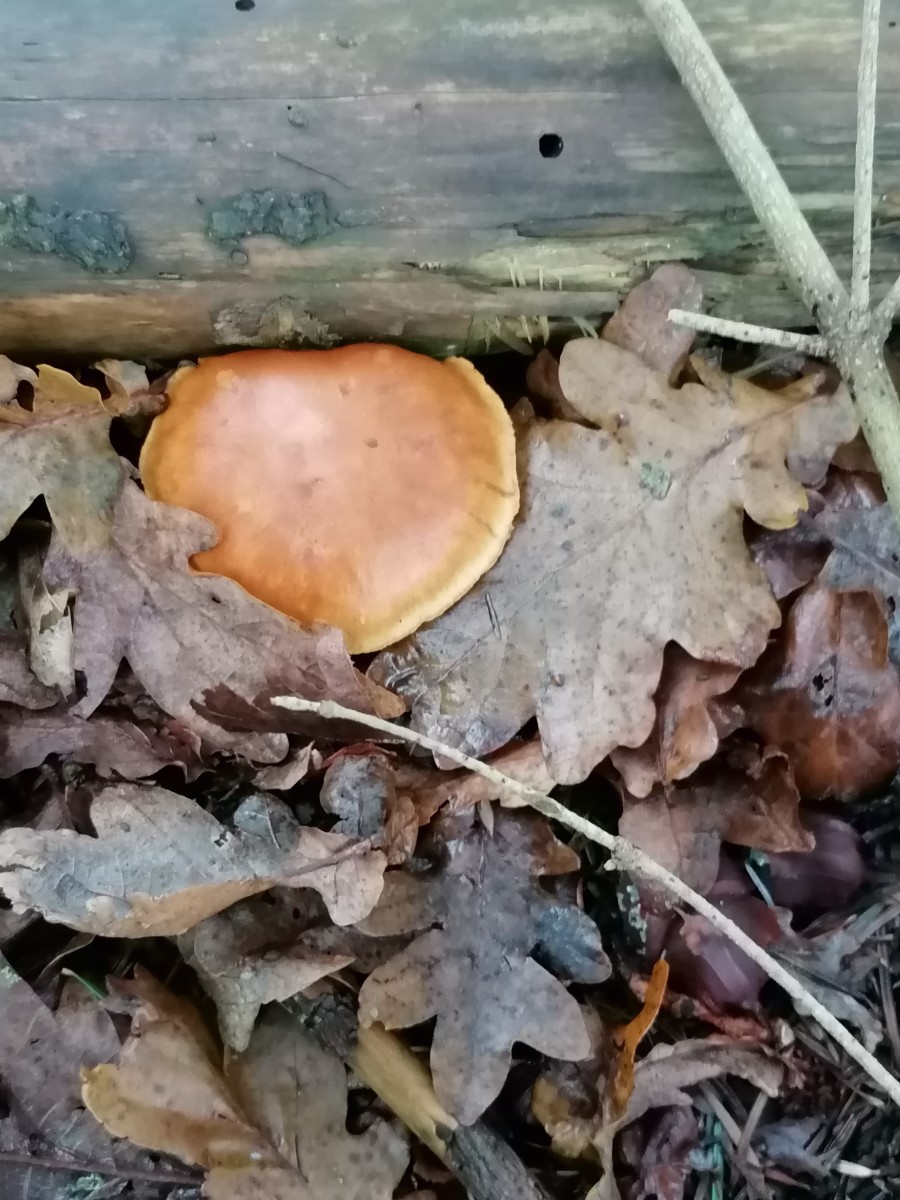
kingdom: Fungi
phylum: Basidiomycota
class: Agaricomycetes
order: Agaricales
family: Hymenogastraceae
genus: Gymnopilus
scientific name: Gymnopilus penetrans
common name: plettet flammehat
